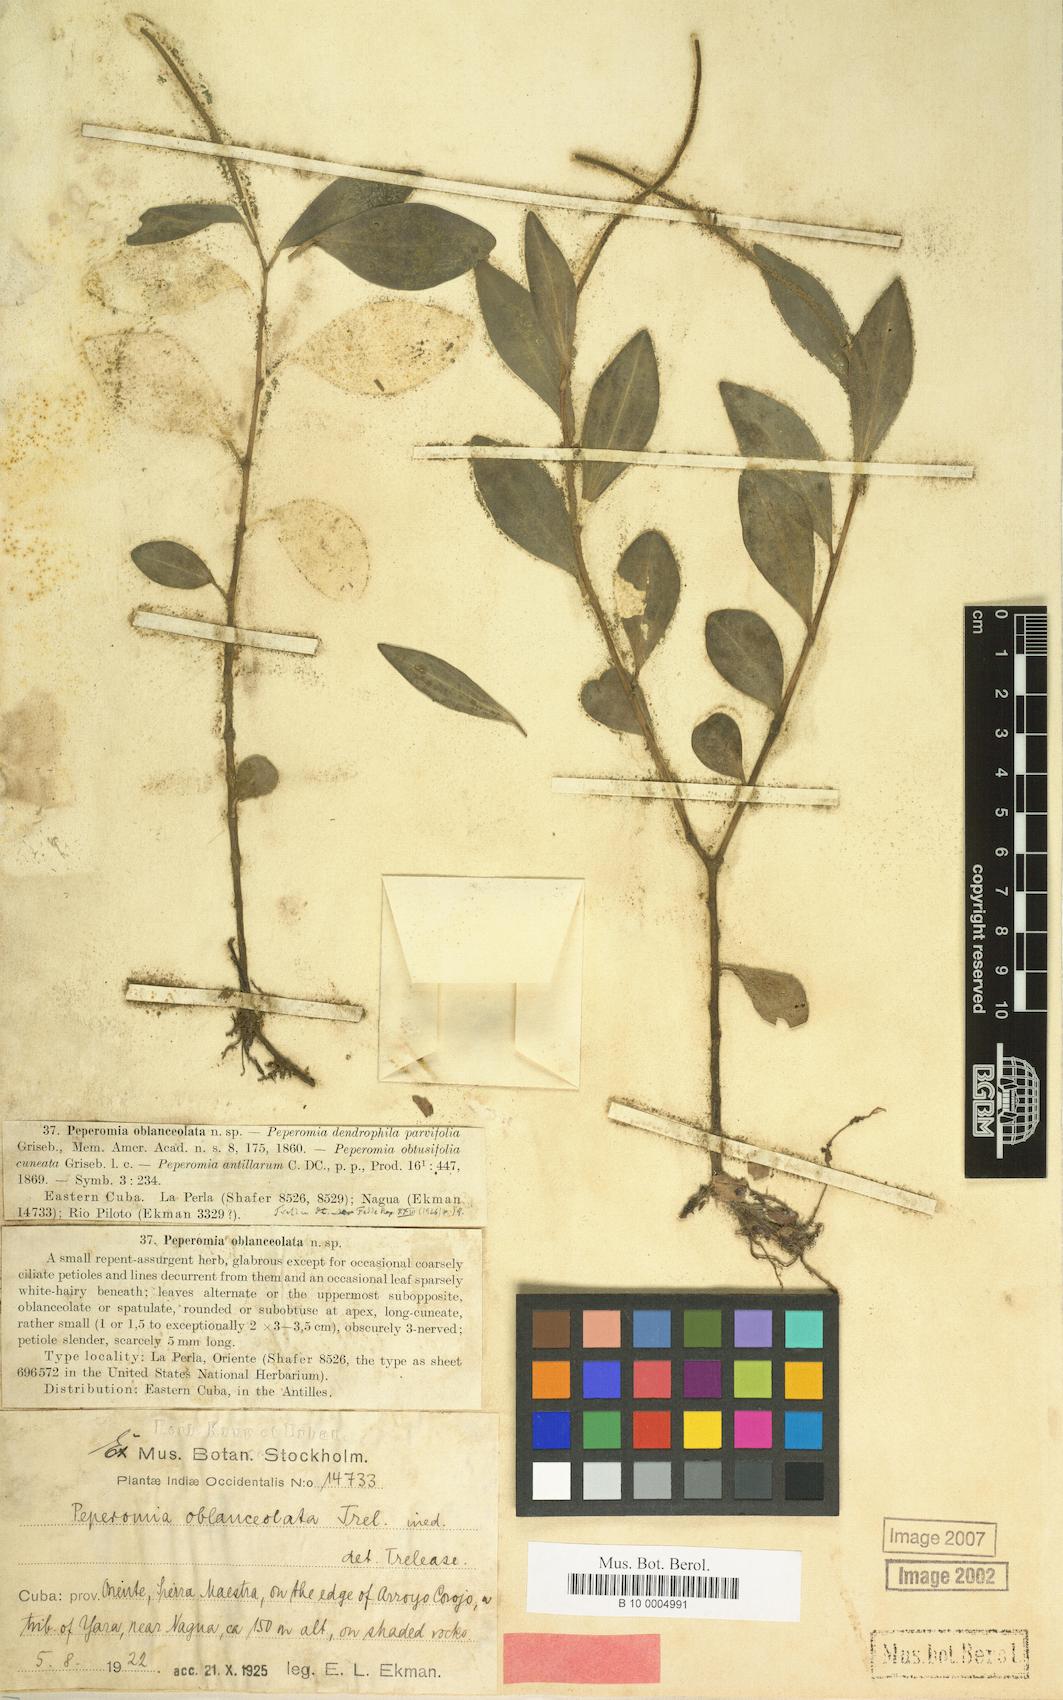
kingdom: Plantae
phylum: Tracheophyta
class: Magnoliopsida
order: Piperales
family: Piperaceae
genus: Peperomia
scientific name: Peperomia guadaloupensis
